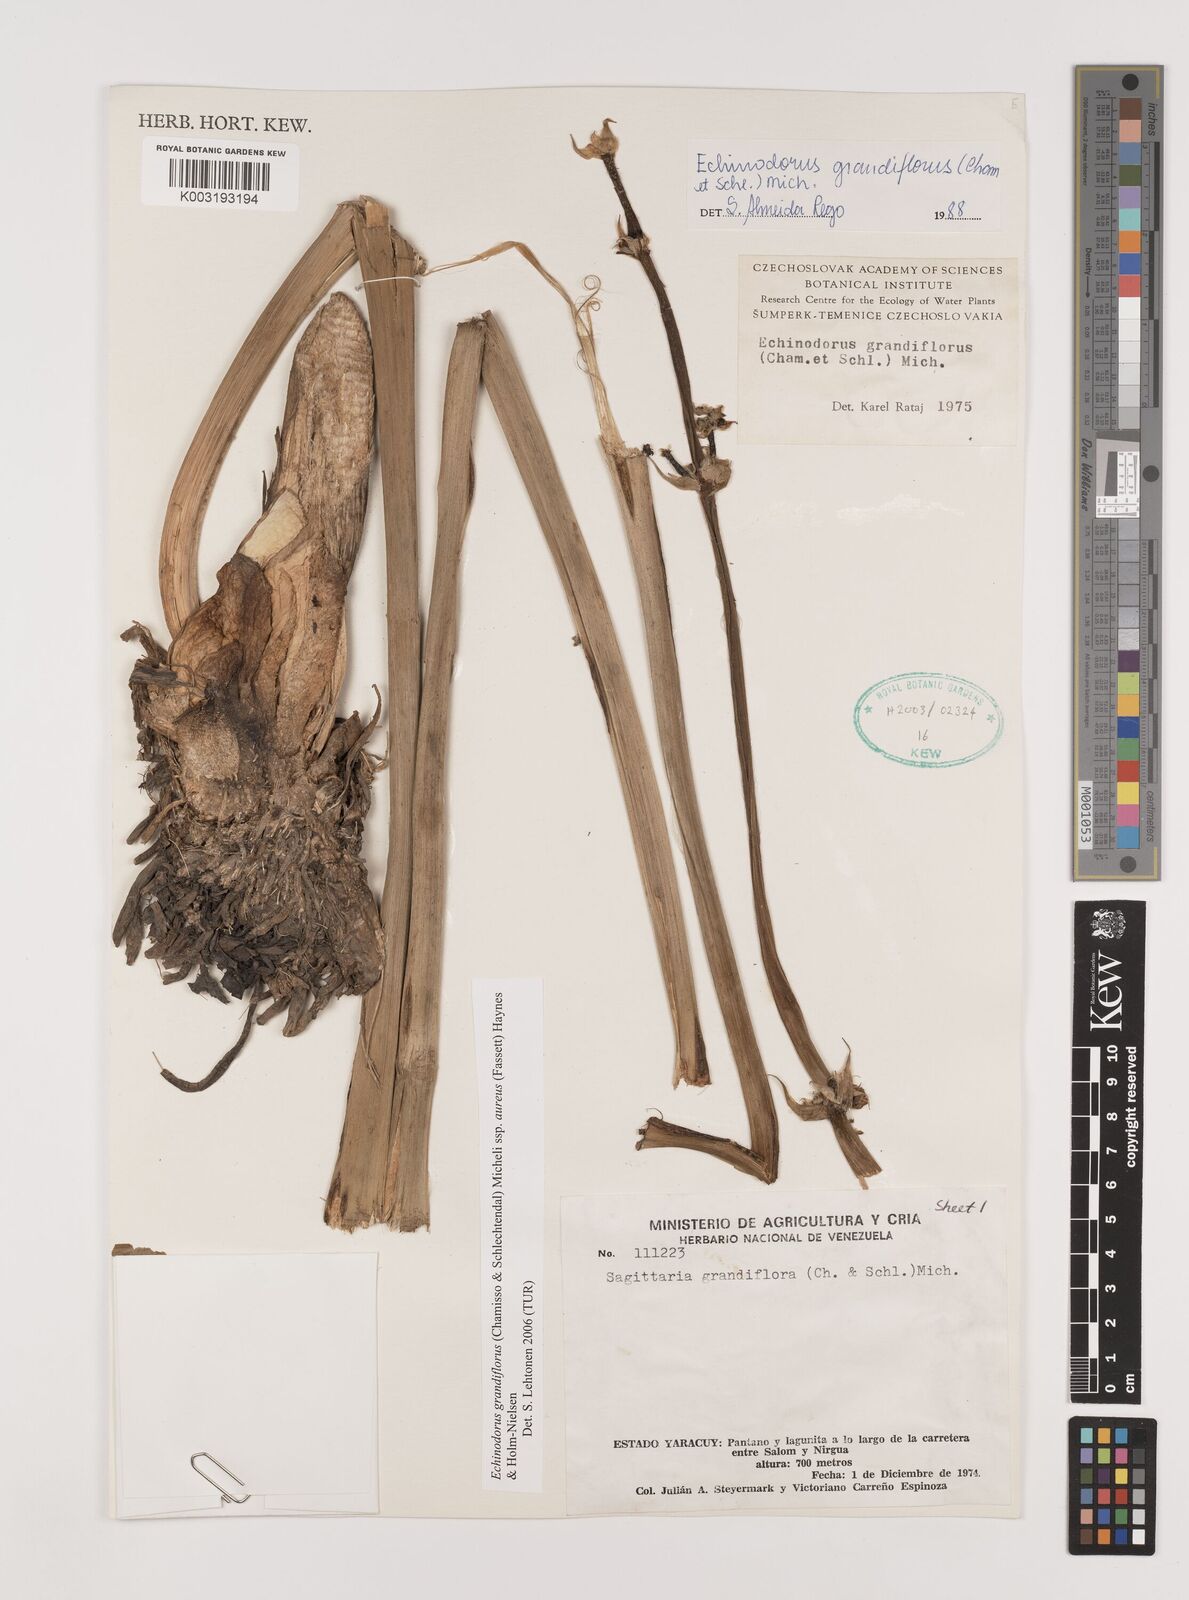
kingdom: Plantae
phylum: Tracheophyta
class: Liliopsida
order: Alismatales
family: Alismataceae
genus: Aquarius
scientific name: Aquarius floribundus
